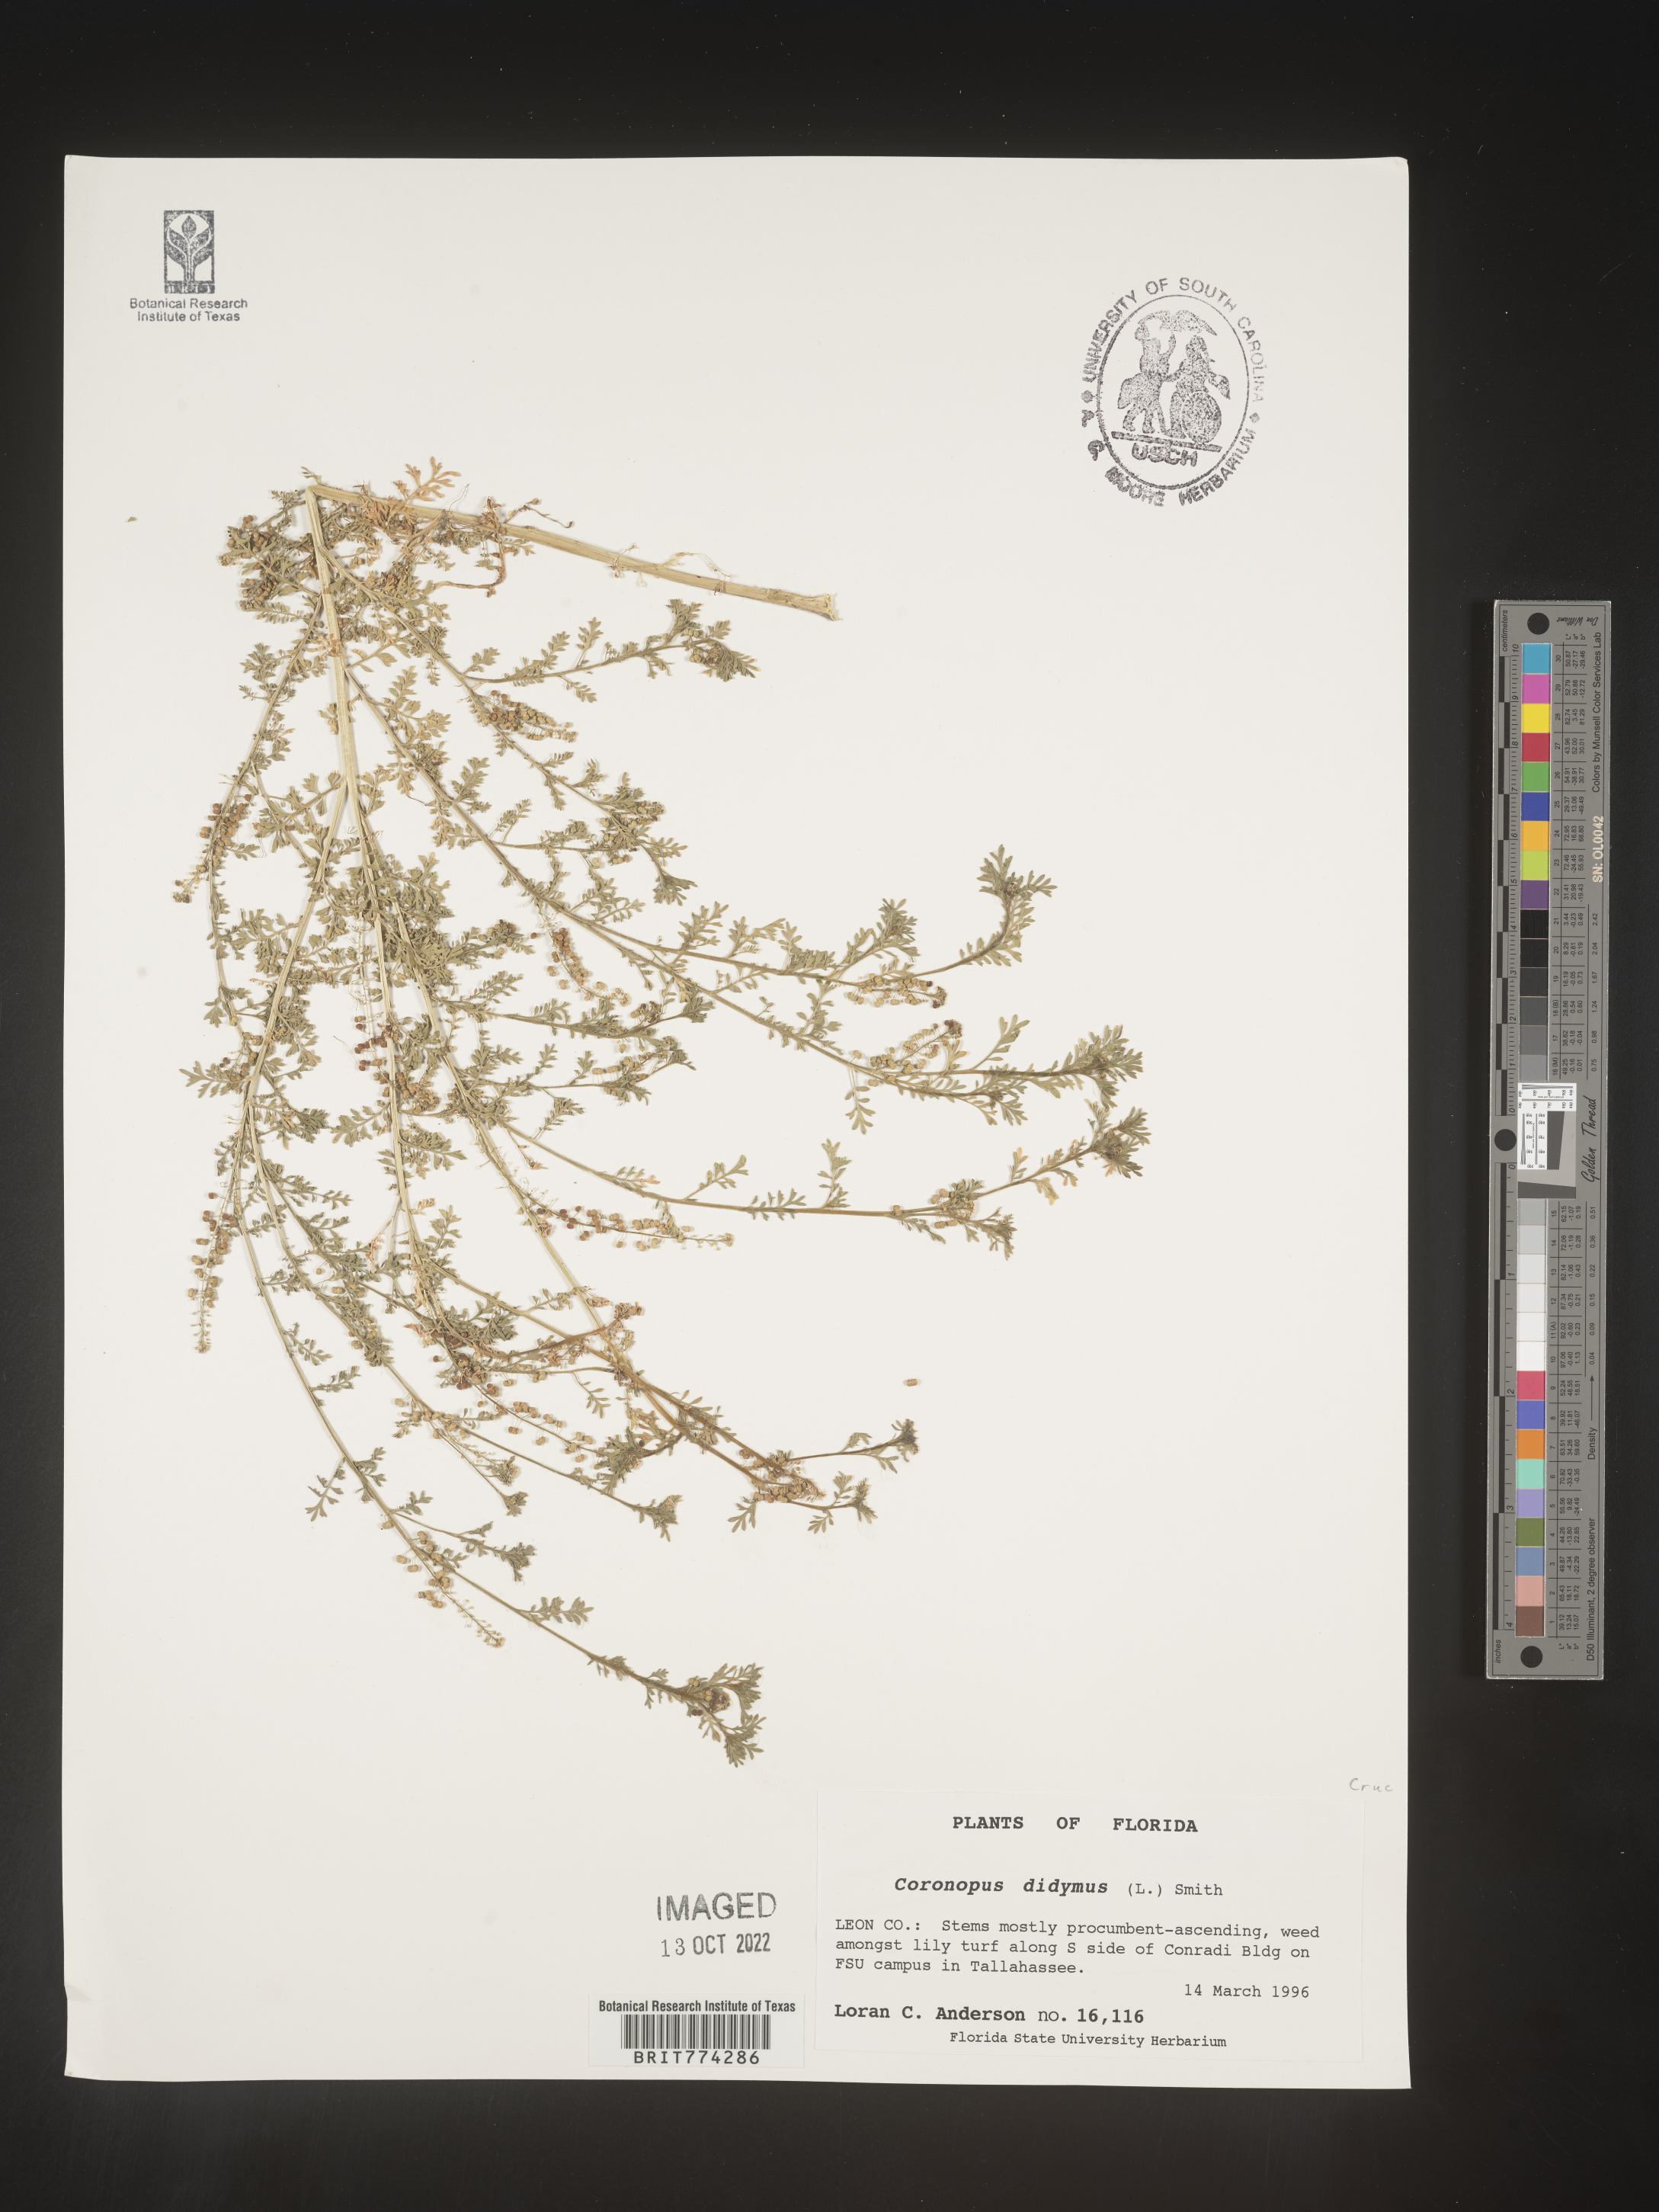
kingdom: Plantae
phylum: Tracheophyta
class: Magnoliopsida
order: Brassicales
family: Brassicaceae
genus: Coronopus
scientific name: Coronopus
